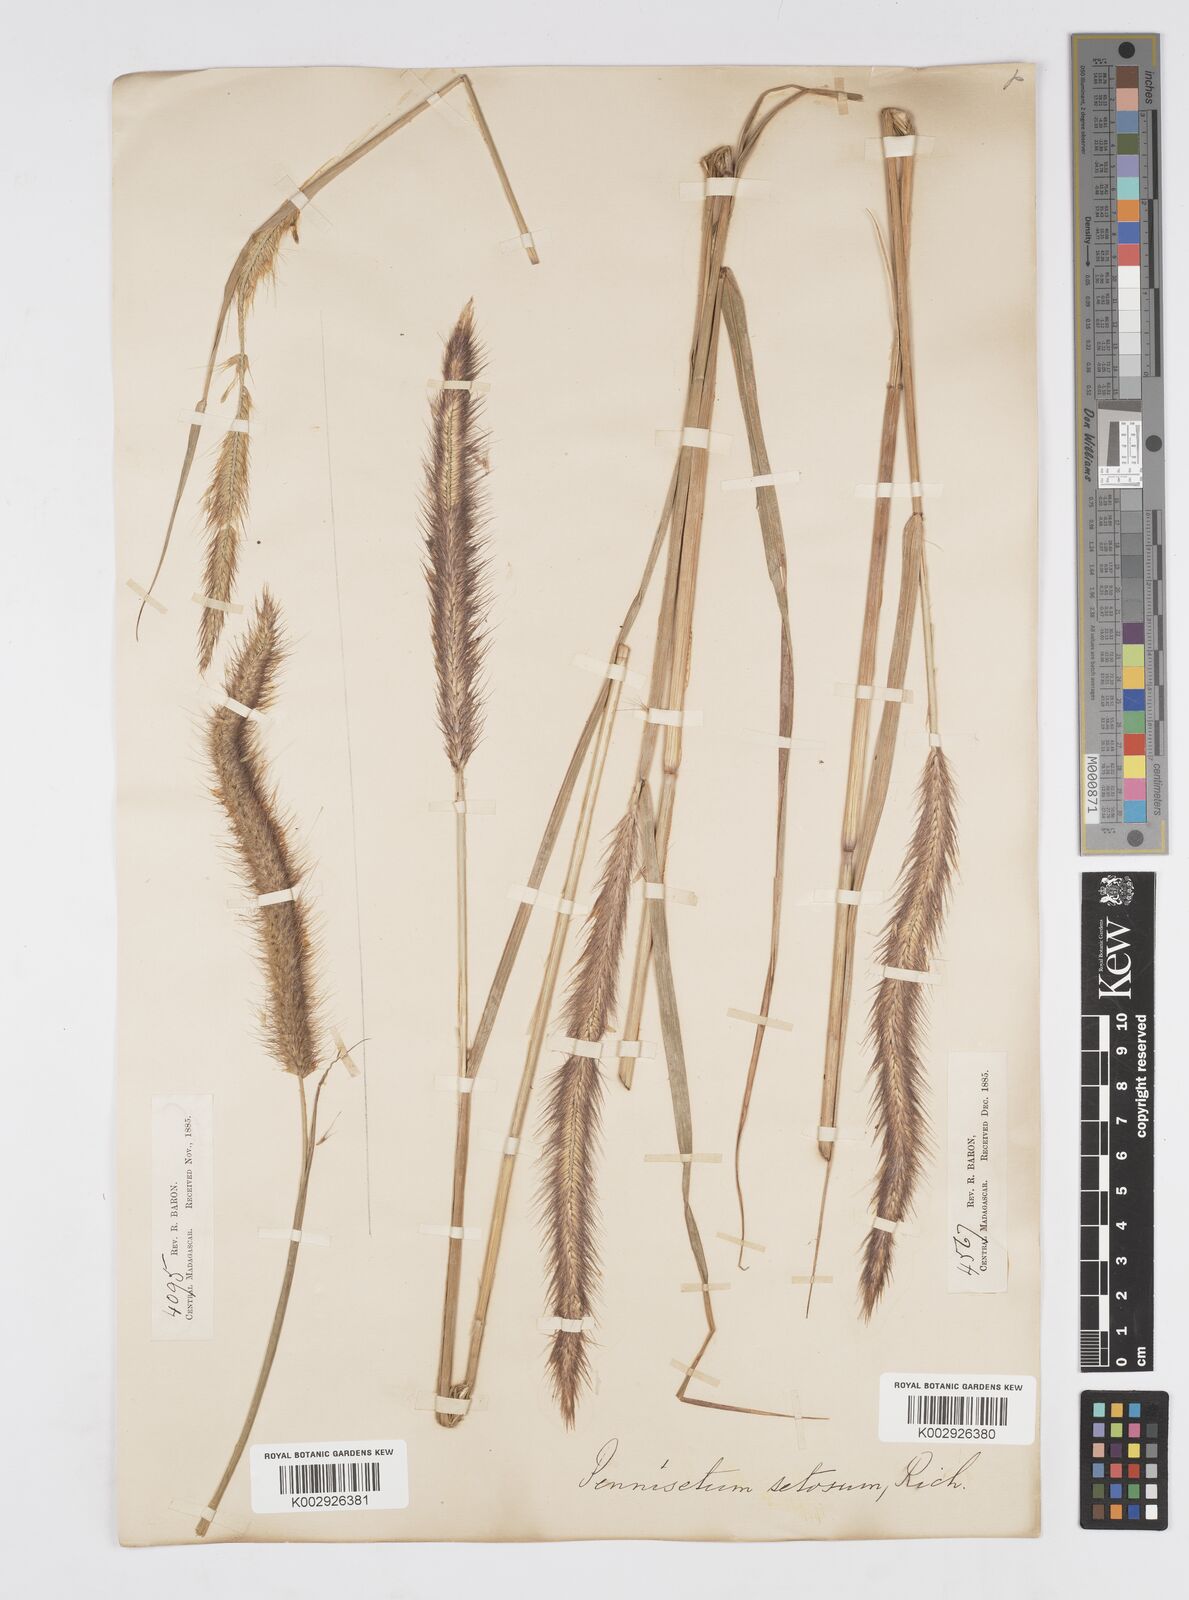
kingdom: Plantae
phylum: Tracheophyta
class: Liliopsida
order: Poales
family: Poaceae
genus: Setaria
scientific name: Setaria parviflora
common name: Knotroot bristle-grass
